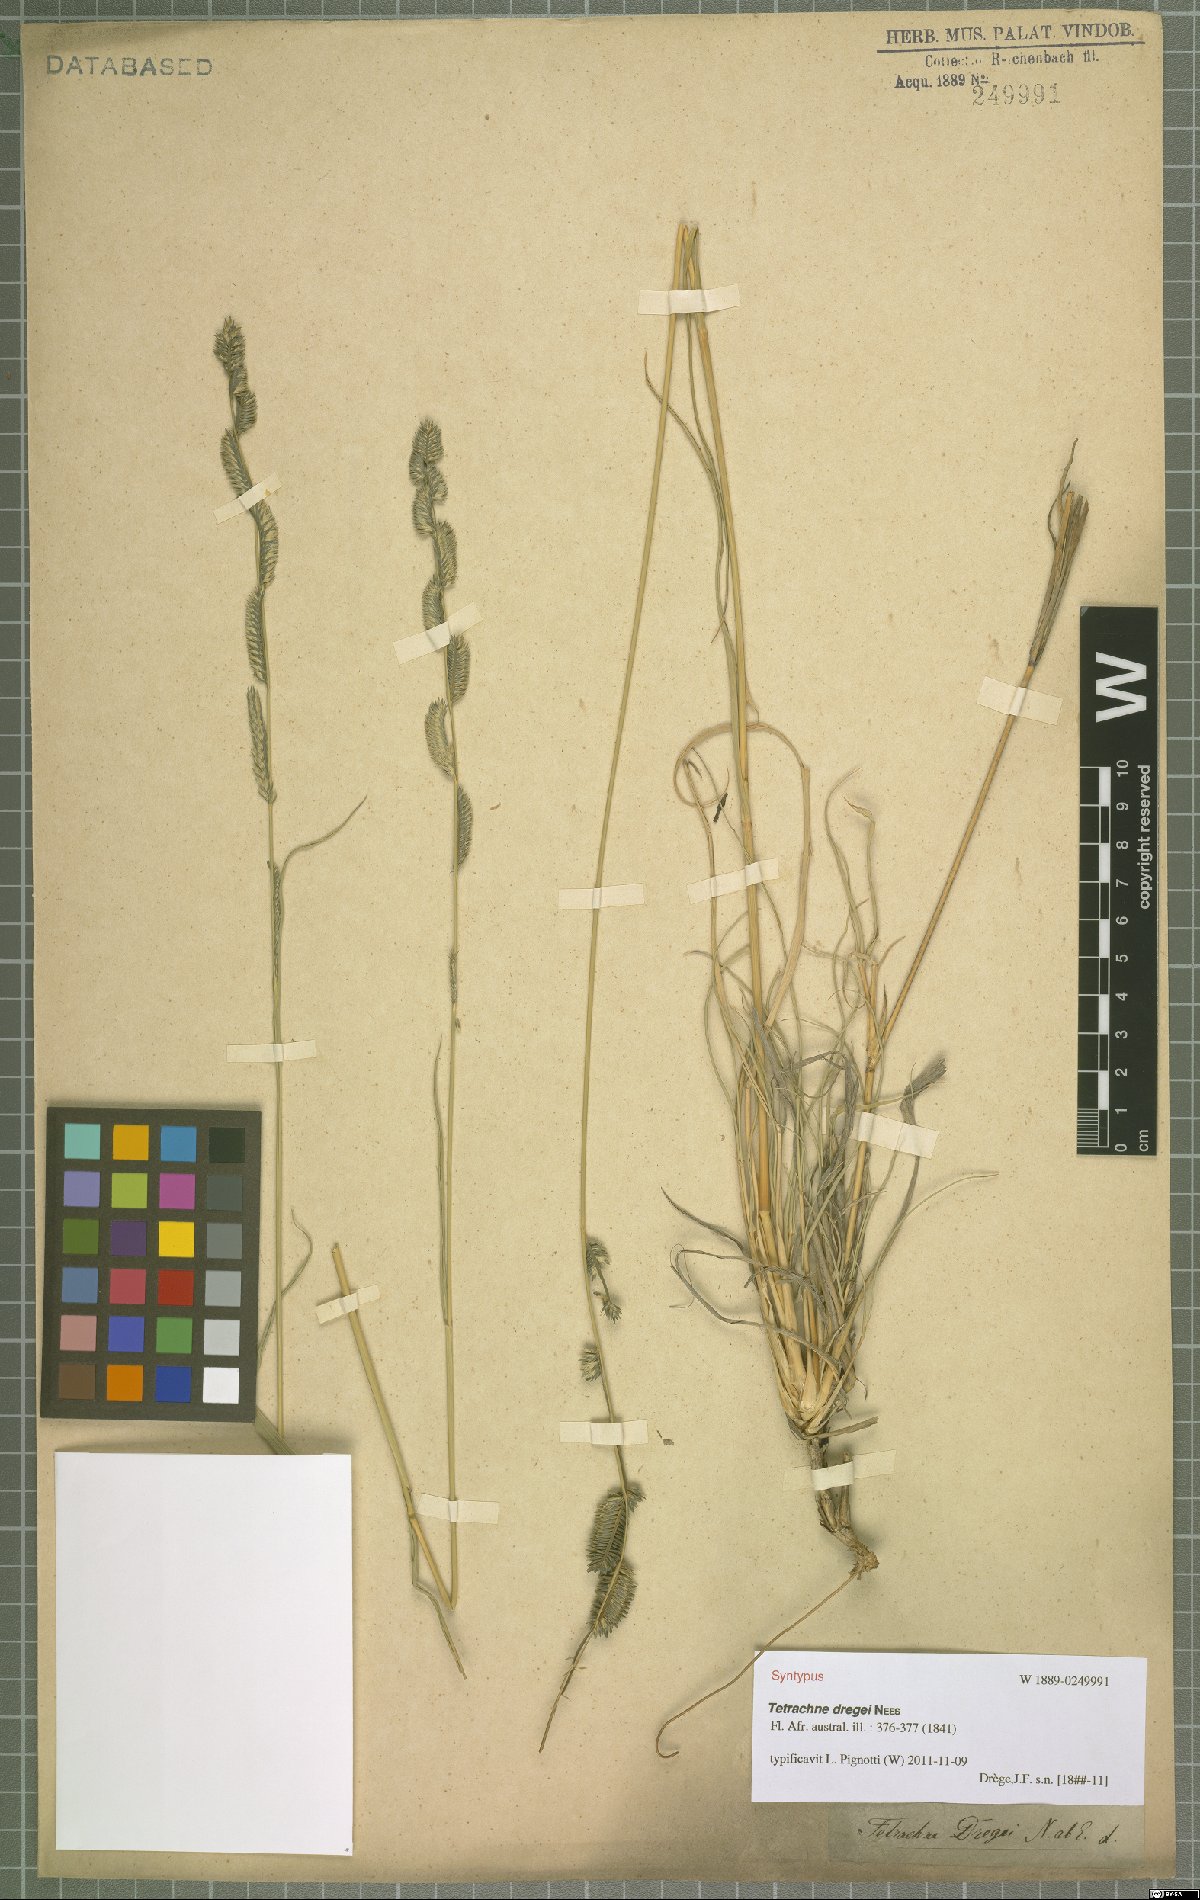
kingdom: Plantae
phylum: Tracheophyta
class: Liliopsida
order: Poales
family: Poaceae
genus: Tetrachne
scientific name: Tetrachne dregei
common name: Robies cocksfoot
